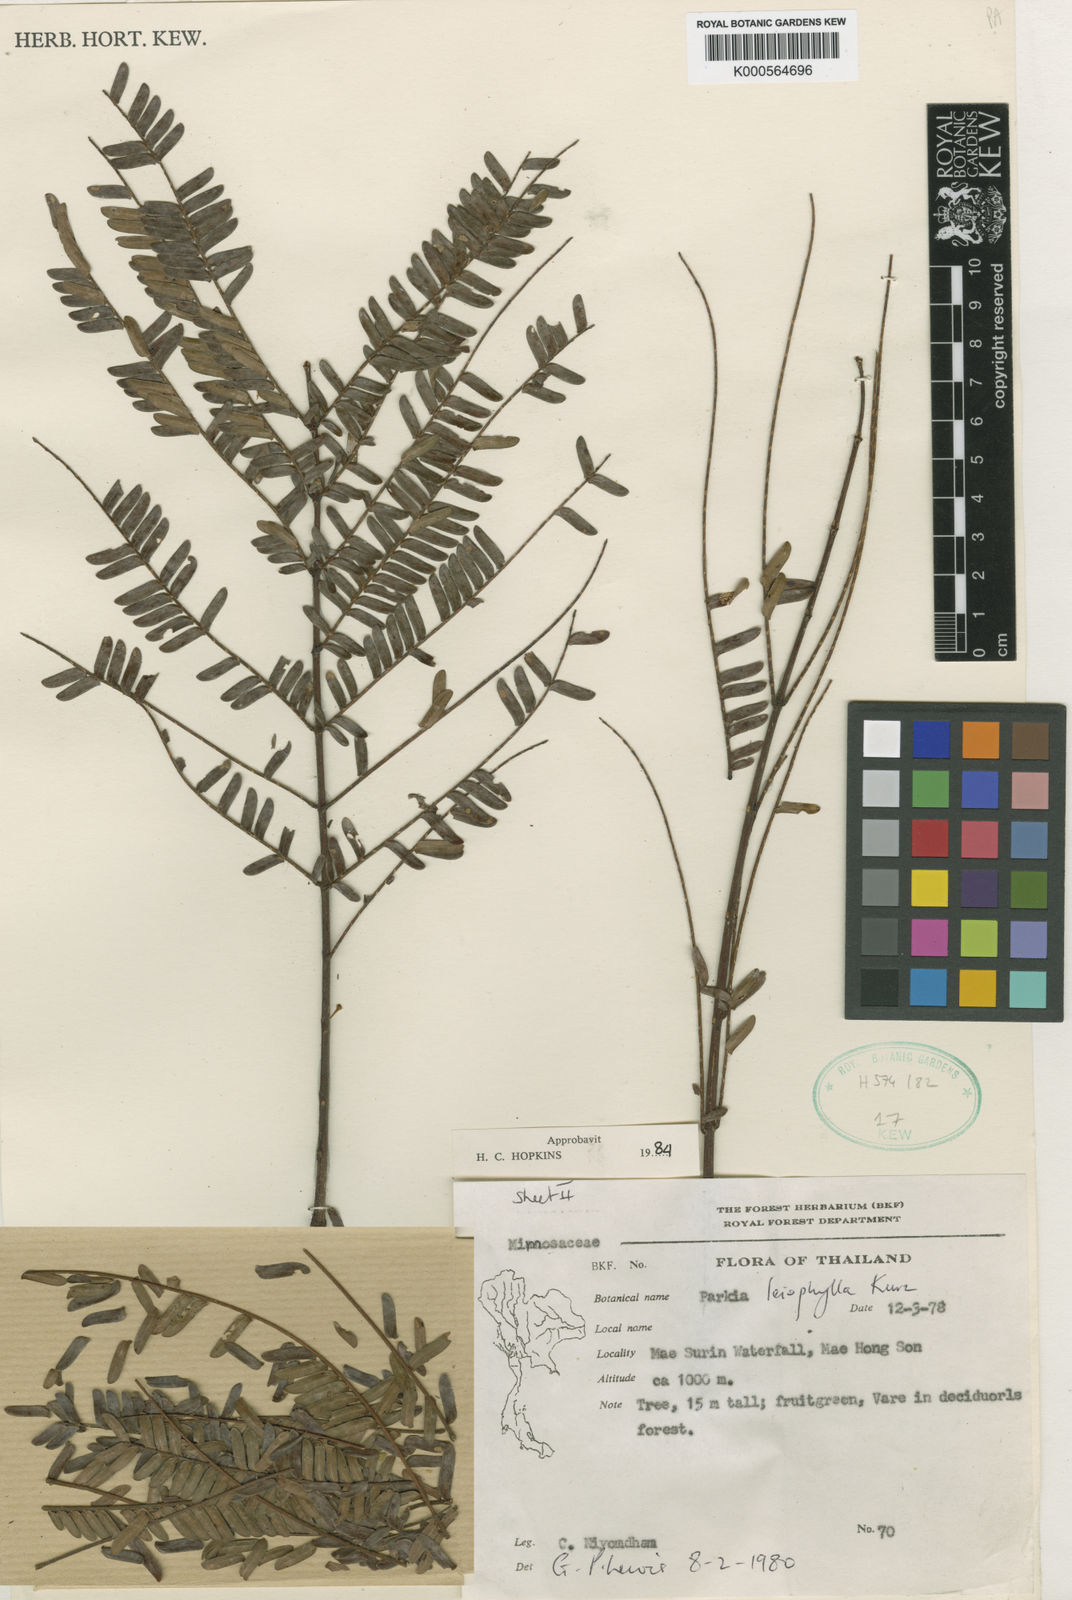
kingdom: Plantae
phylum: Tracheophyta
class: Magnoliopsida
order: Fabales
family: Fabaceae
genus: Parkia
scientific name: Parkia leiophylla
